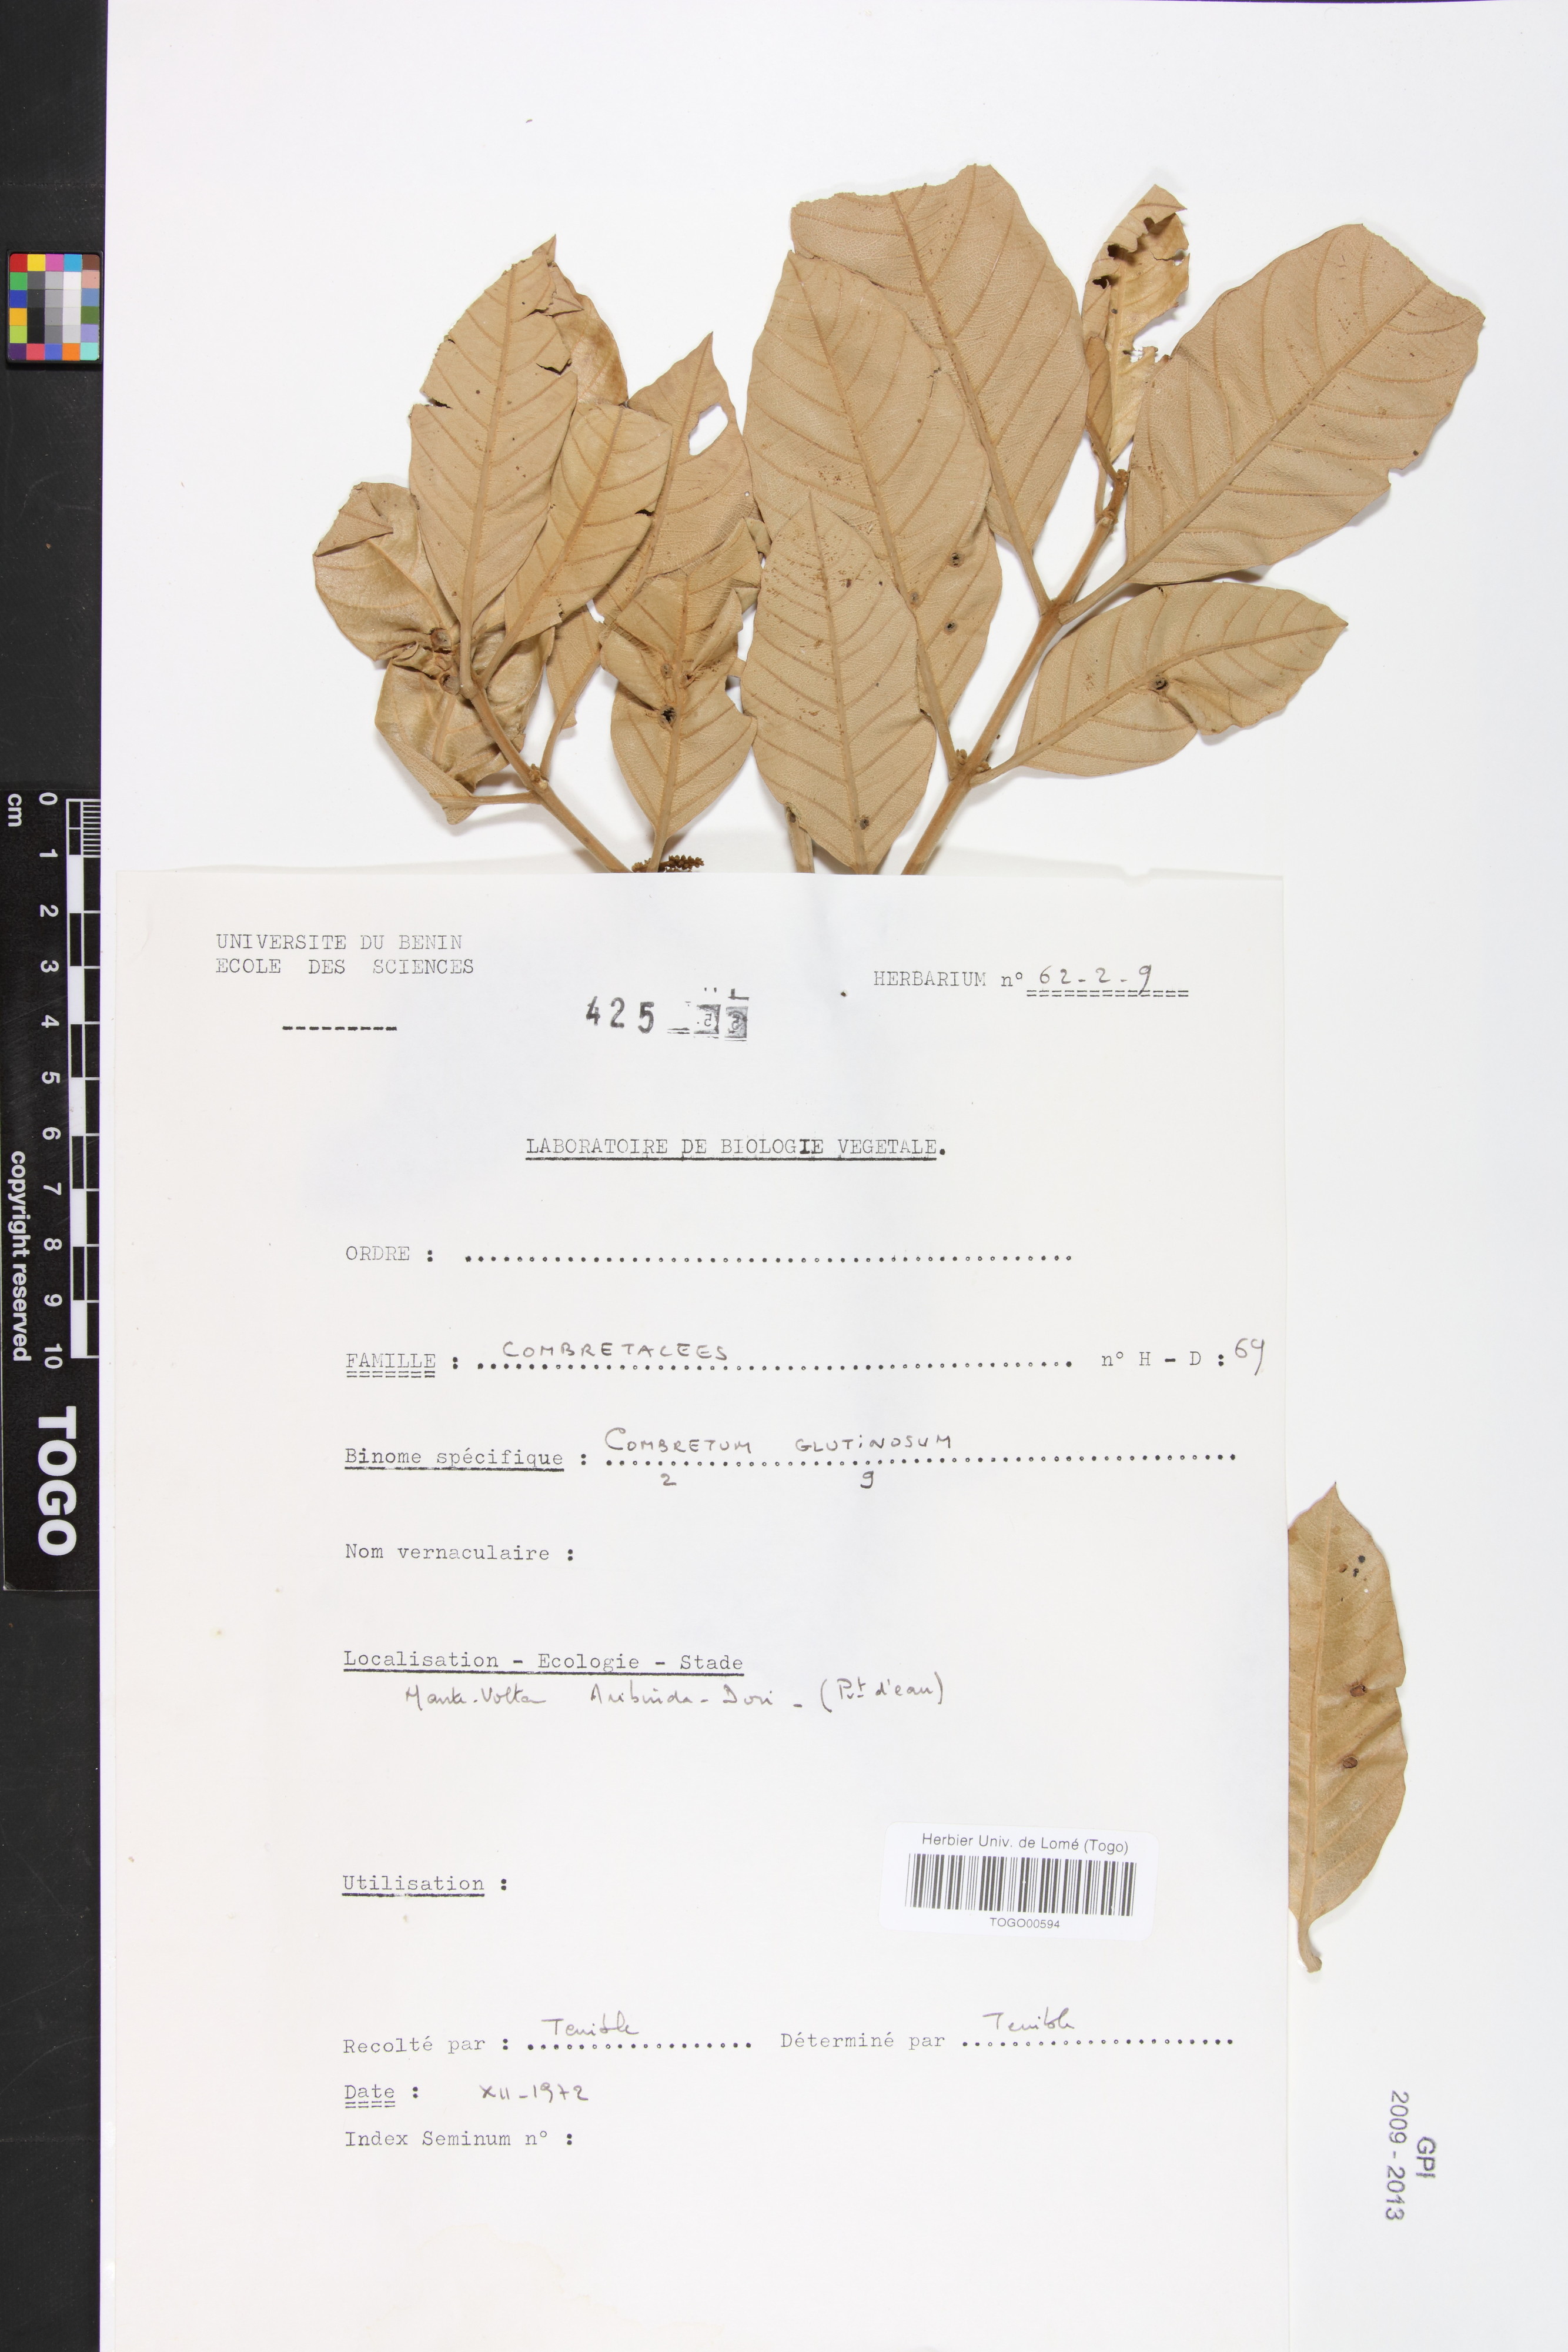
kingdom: Plantae
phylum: Tracheophyta
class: Magnoliopsida
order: Myrtales
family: Combretaceae
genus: Combretum
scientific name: Combretum glutinosum
